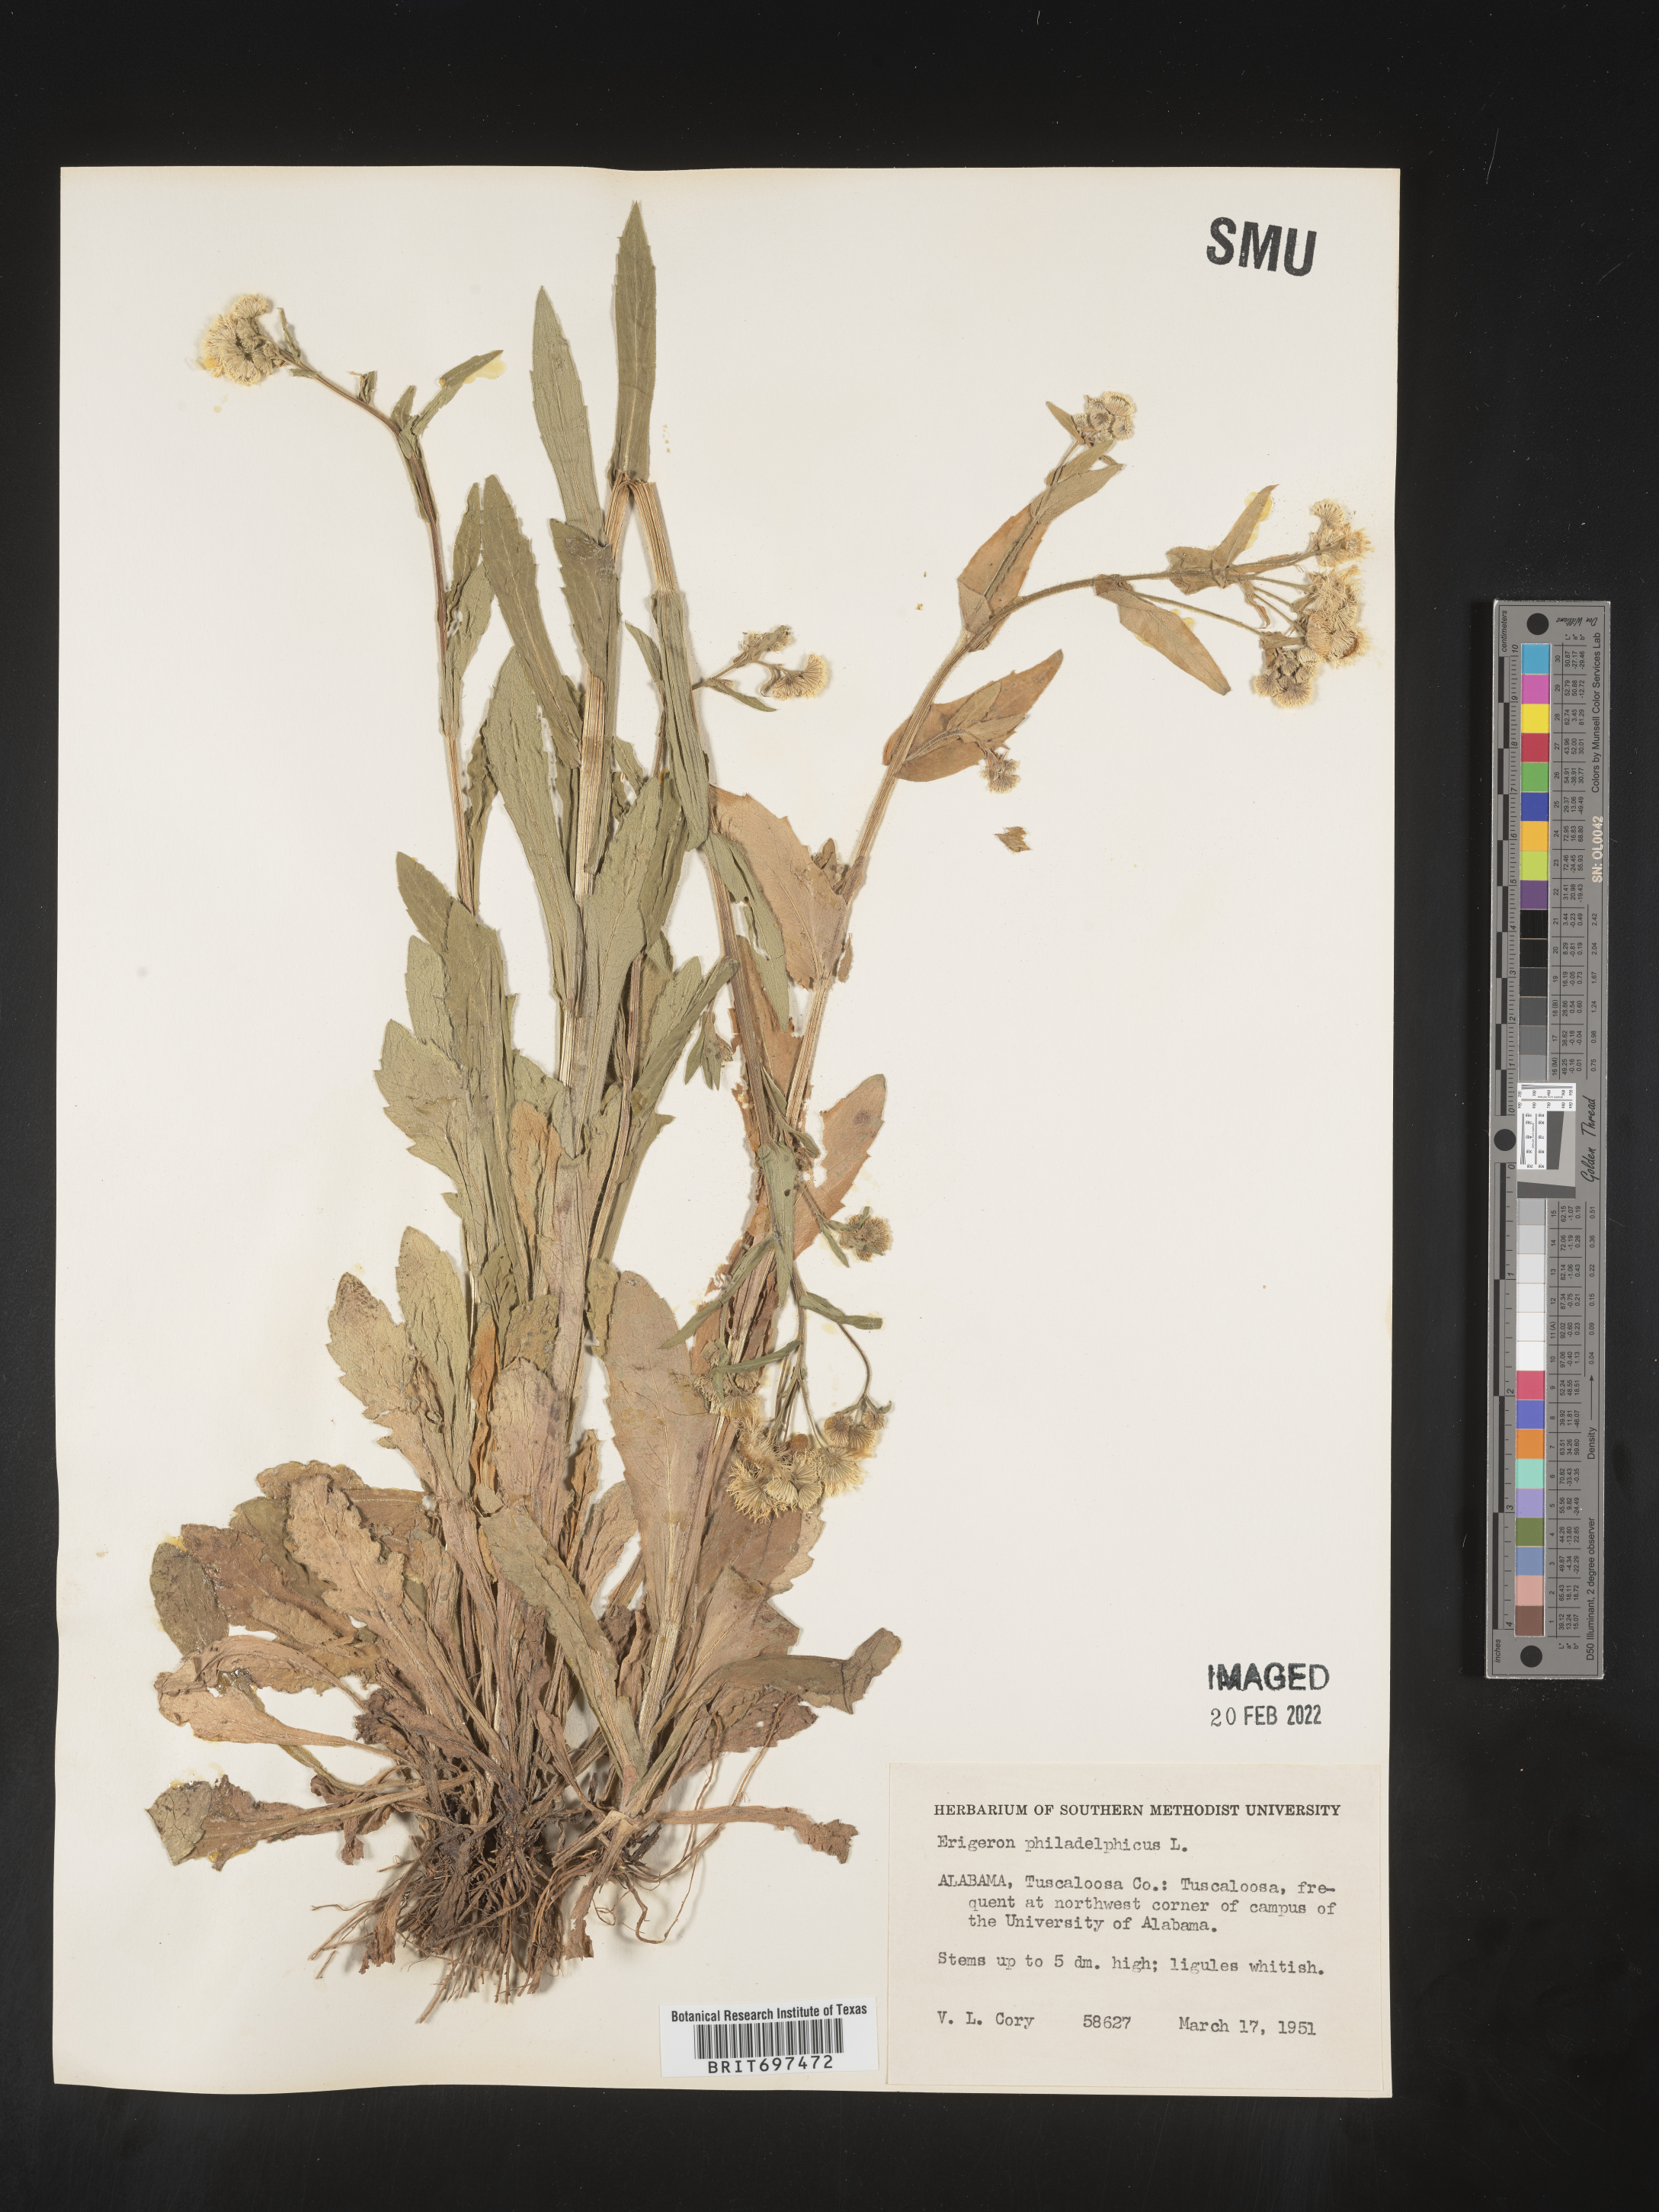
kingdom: Plantae
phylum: Tracheophyta
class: Magnoliopsida
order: Asterales
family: Asteraceae
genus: Erigeron
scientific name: Erigeron philadelphicus
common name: Robin's-plantain
